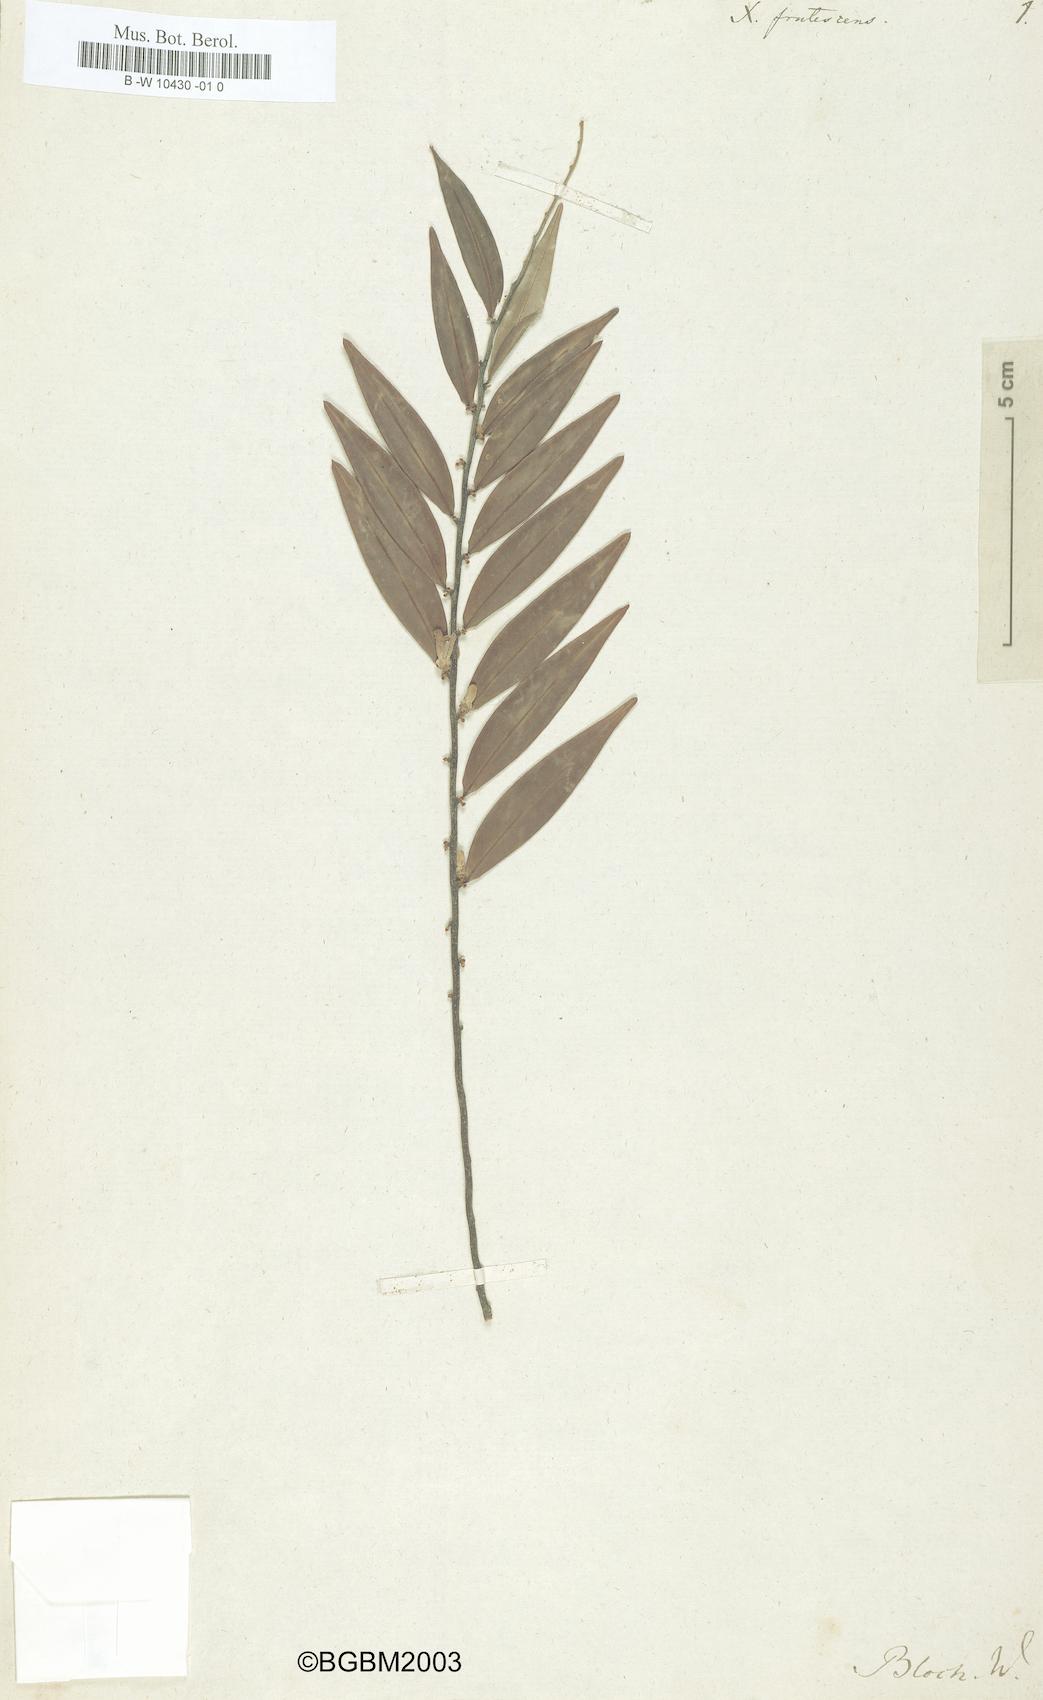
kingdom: Plantae
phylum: Tracheophyta
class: Magnoliopsida
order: Magnoliales
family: Annonaceae
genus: Xylopia
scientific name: Xylopia frutescens
